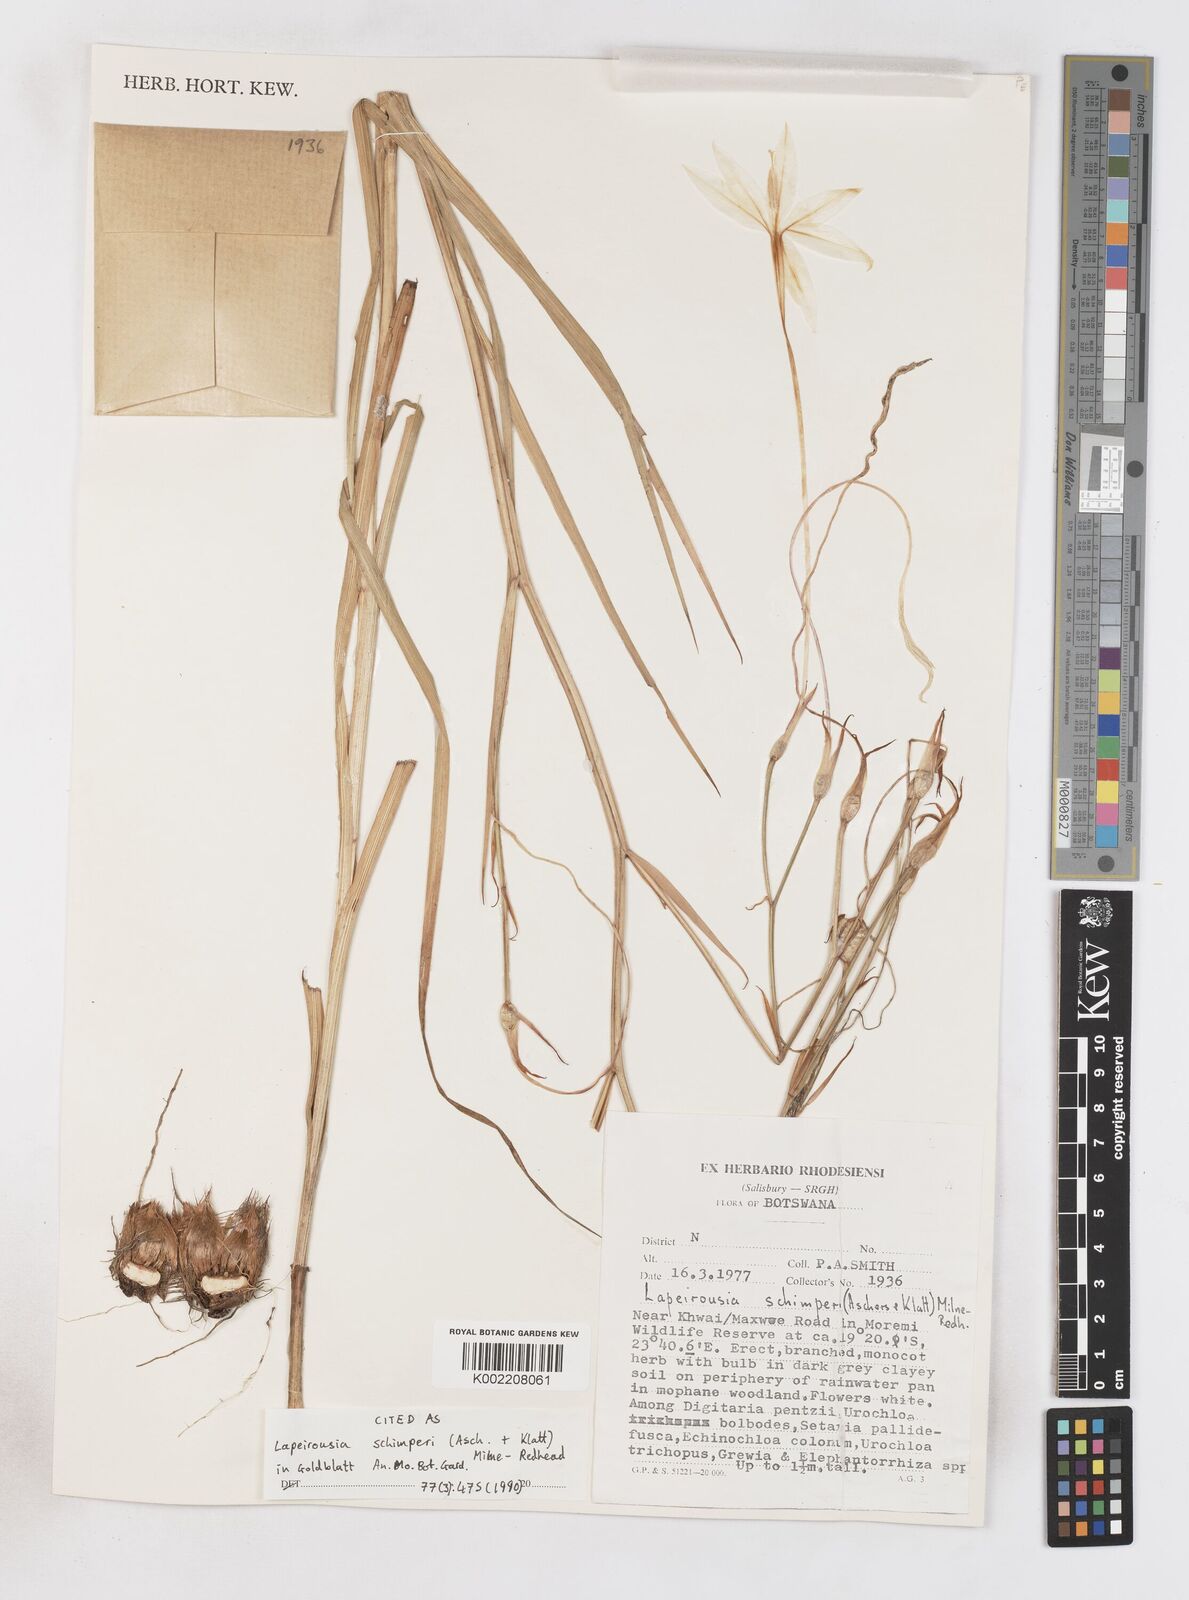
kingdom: Plantae
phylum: Tracheophyta
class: Liliopsida
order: Asparagales
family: Iridaceae
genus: Afrosolen
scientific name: Afrosolen schimperi
